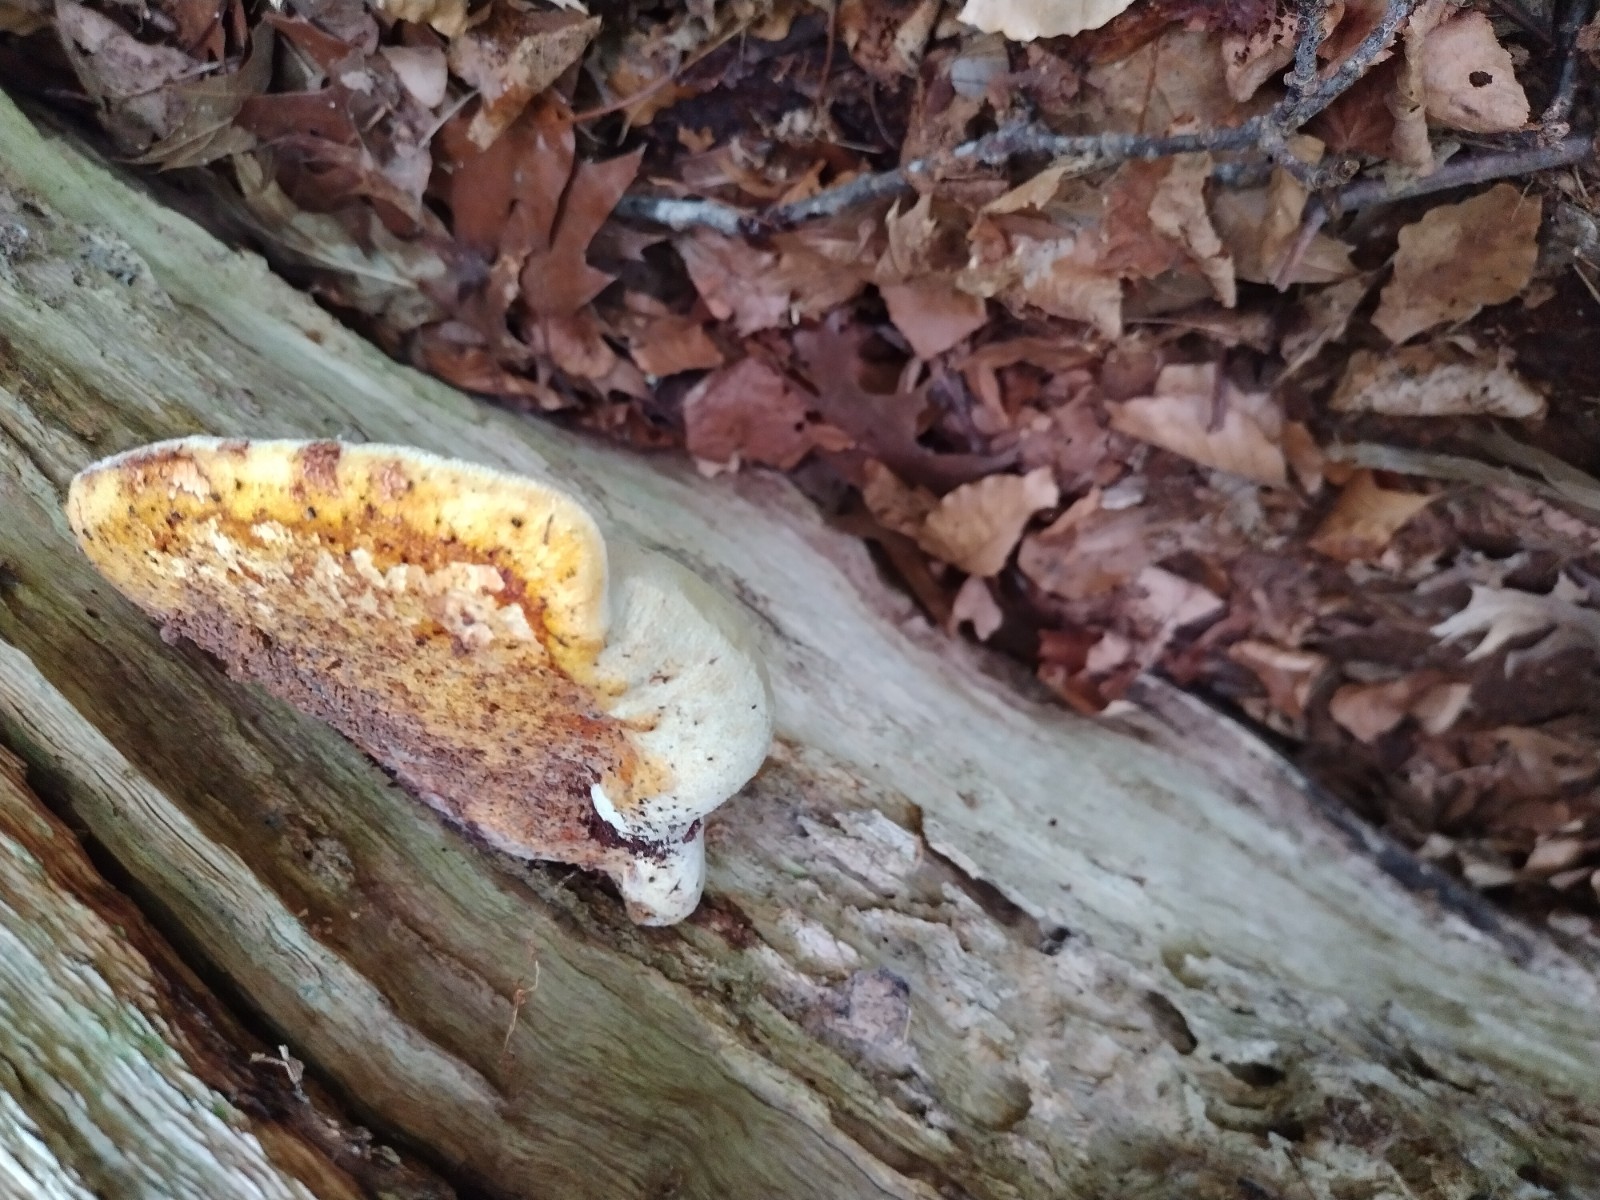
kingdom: Fungi
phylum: Basidiomycota
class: Agaricomycetes
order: Polyporales
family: Fomitopsidaceae
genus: Buglossoporus
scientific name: Buglossoporus quercinus
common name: egetunge
